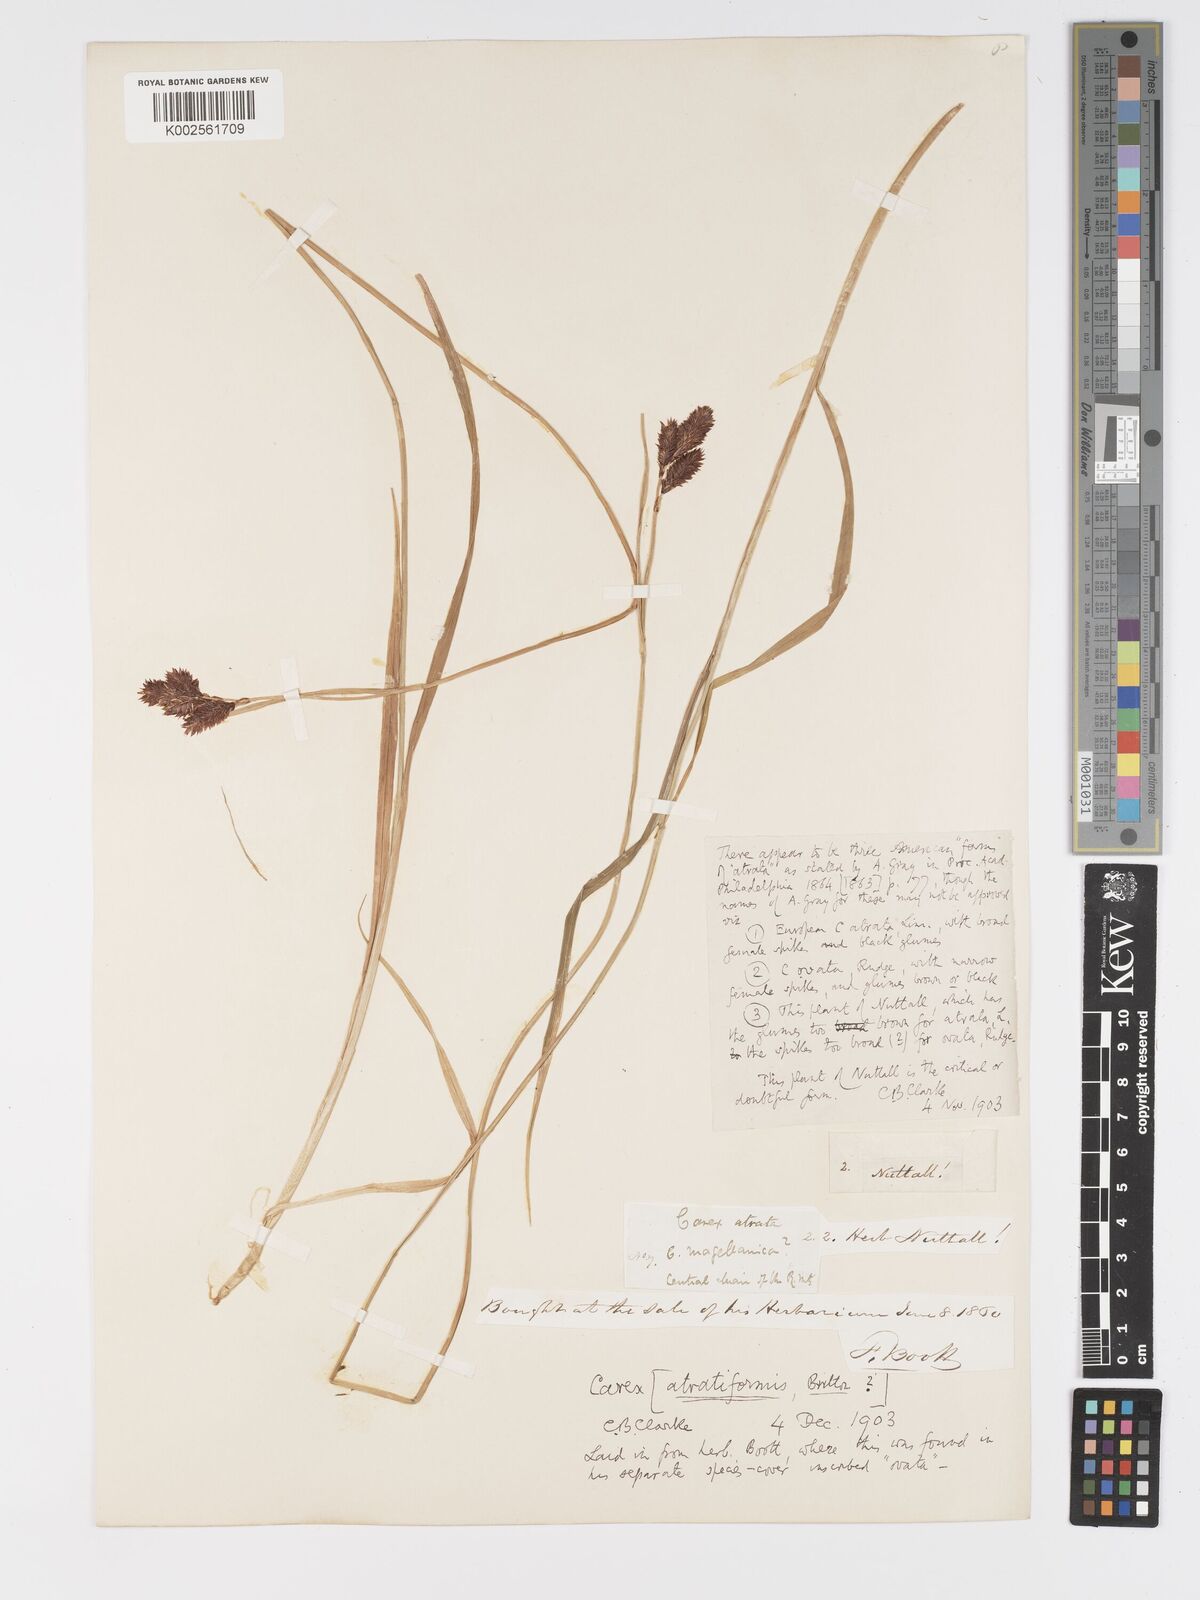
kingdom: Plantae
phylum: Tracheophyta
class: Liliopsida
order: Poales
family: Cyperaceae
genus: Carex
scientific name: Carex atrata
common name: Black alpine sedge
